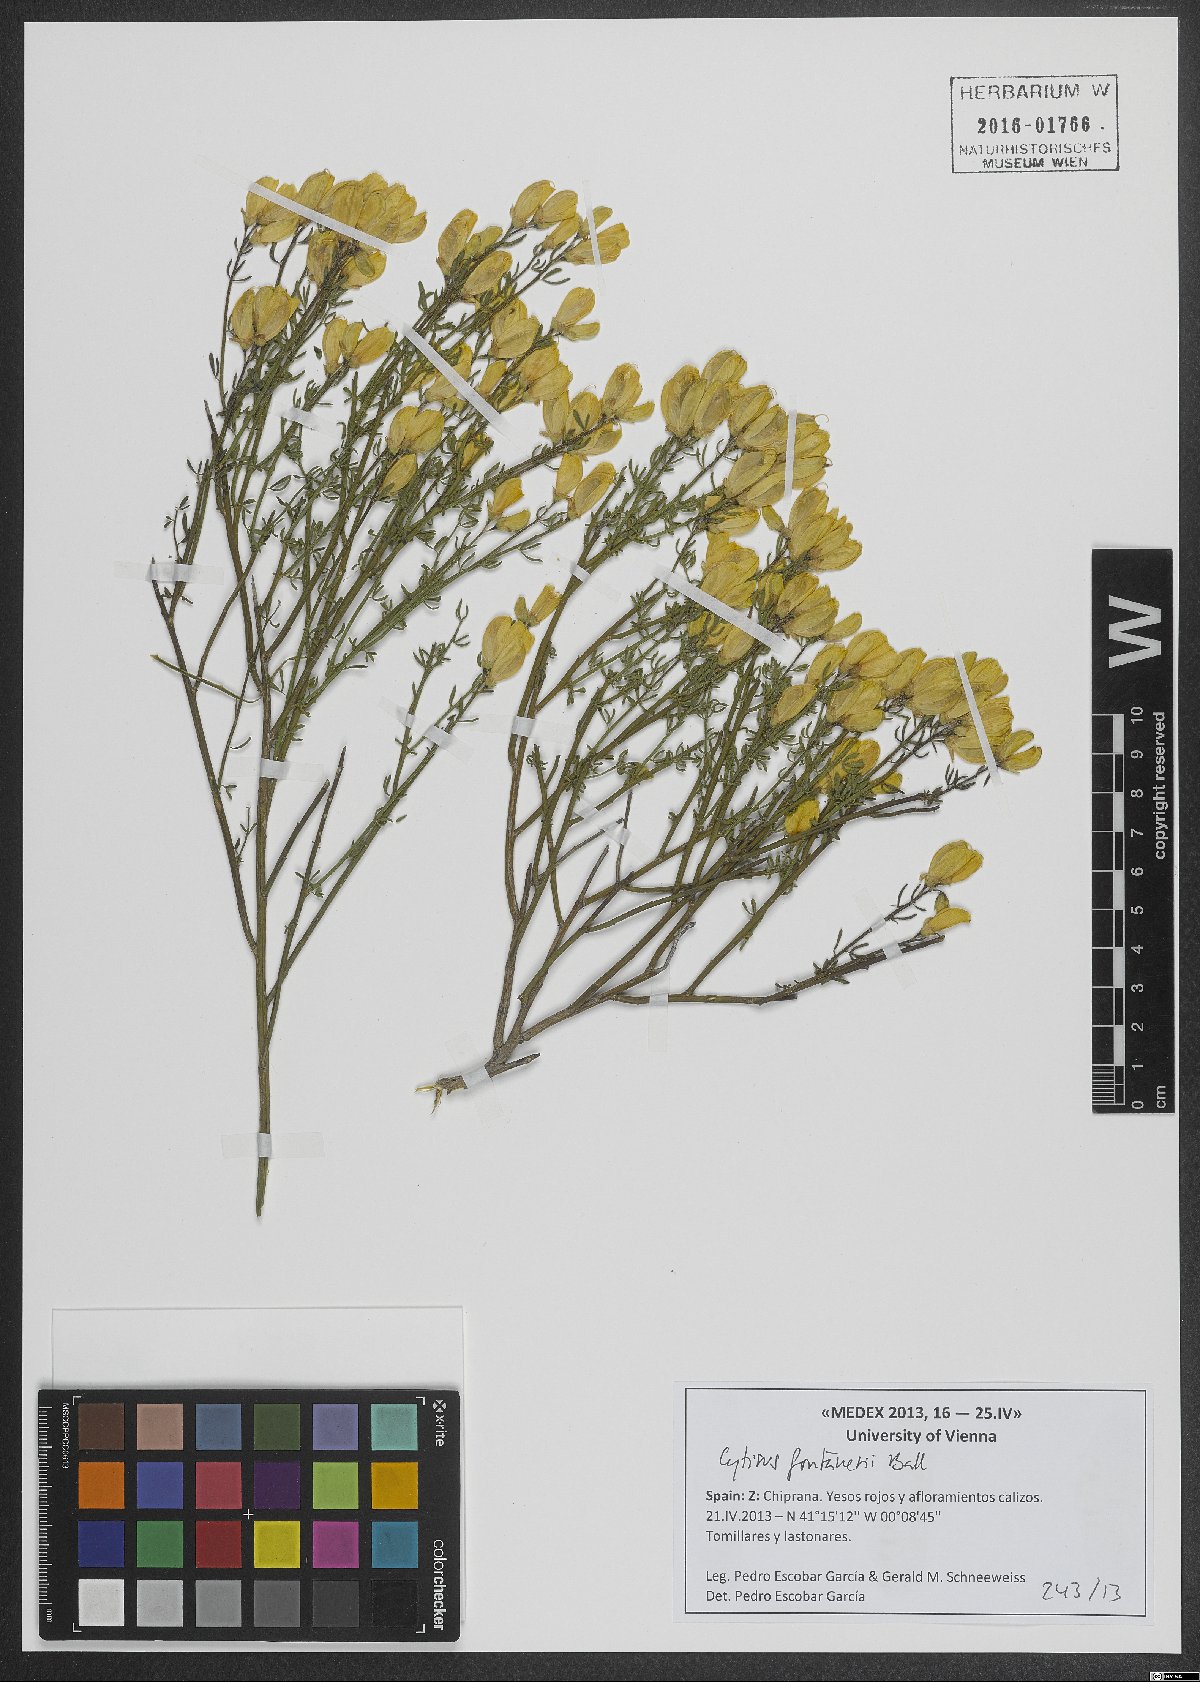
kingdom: Plantae
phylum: Tracheophyta
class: Magnoliopsida
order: Fabales
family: Fabaceae
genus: Cytisus
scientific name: Cytisus fontanesii
